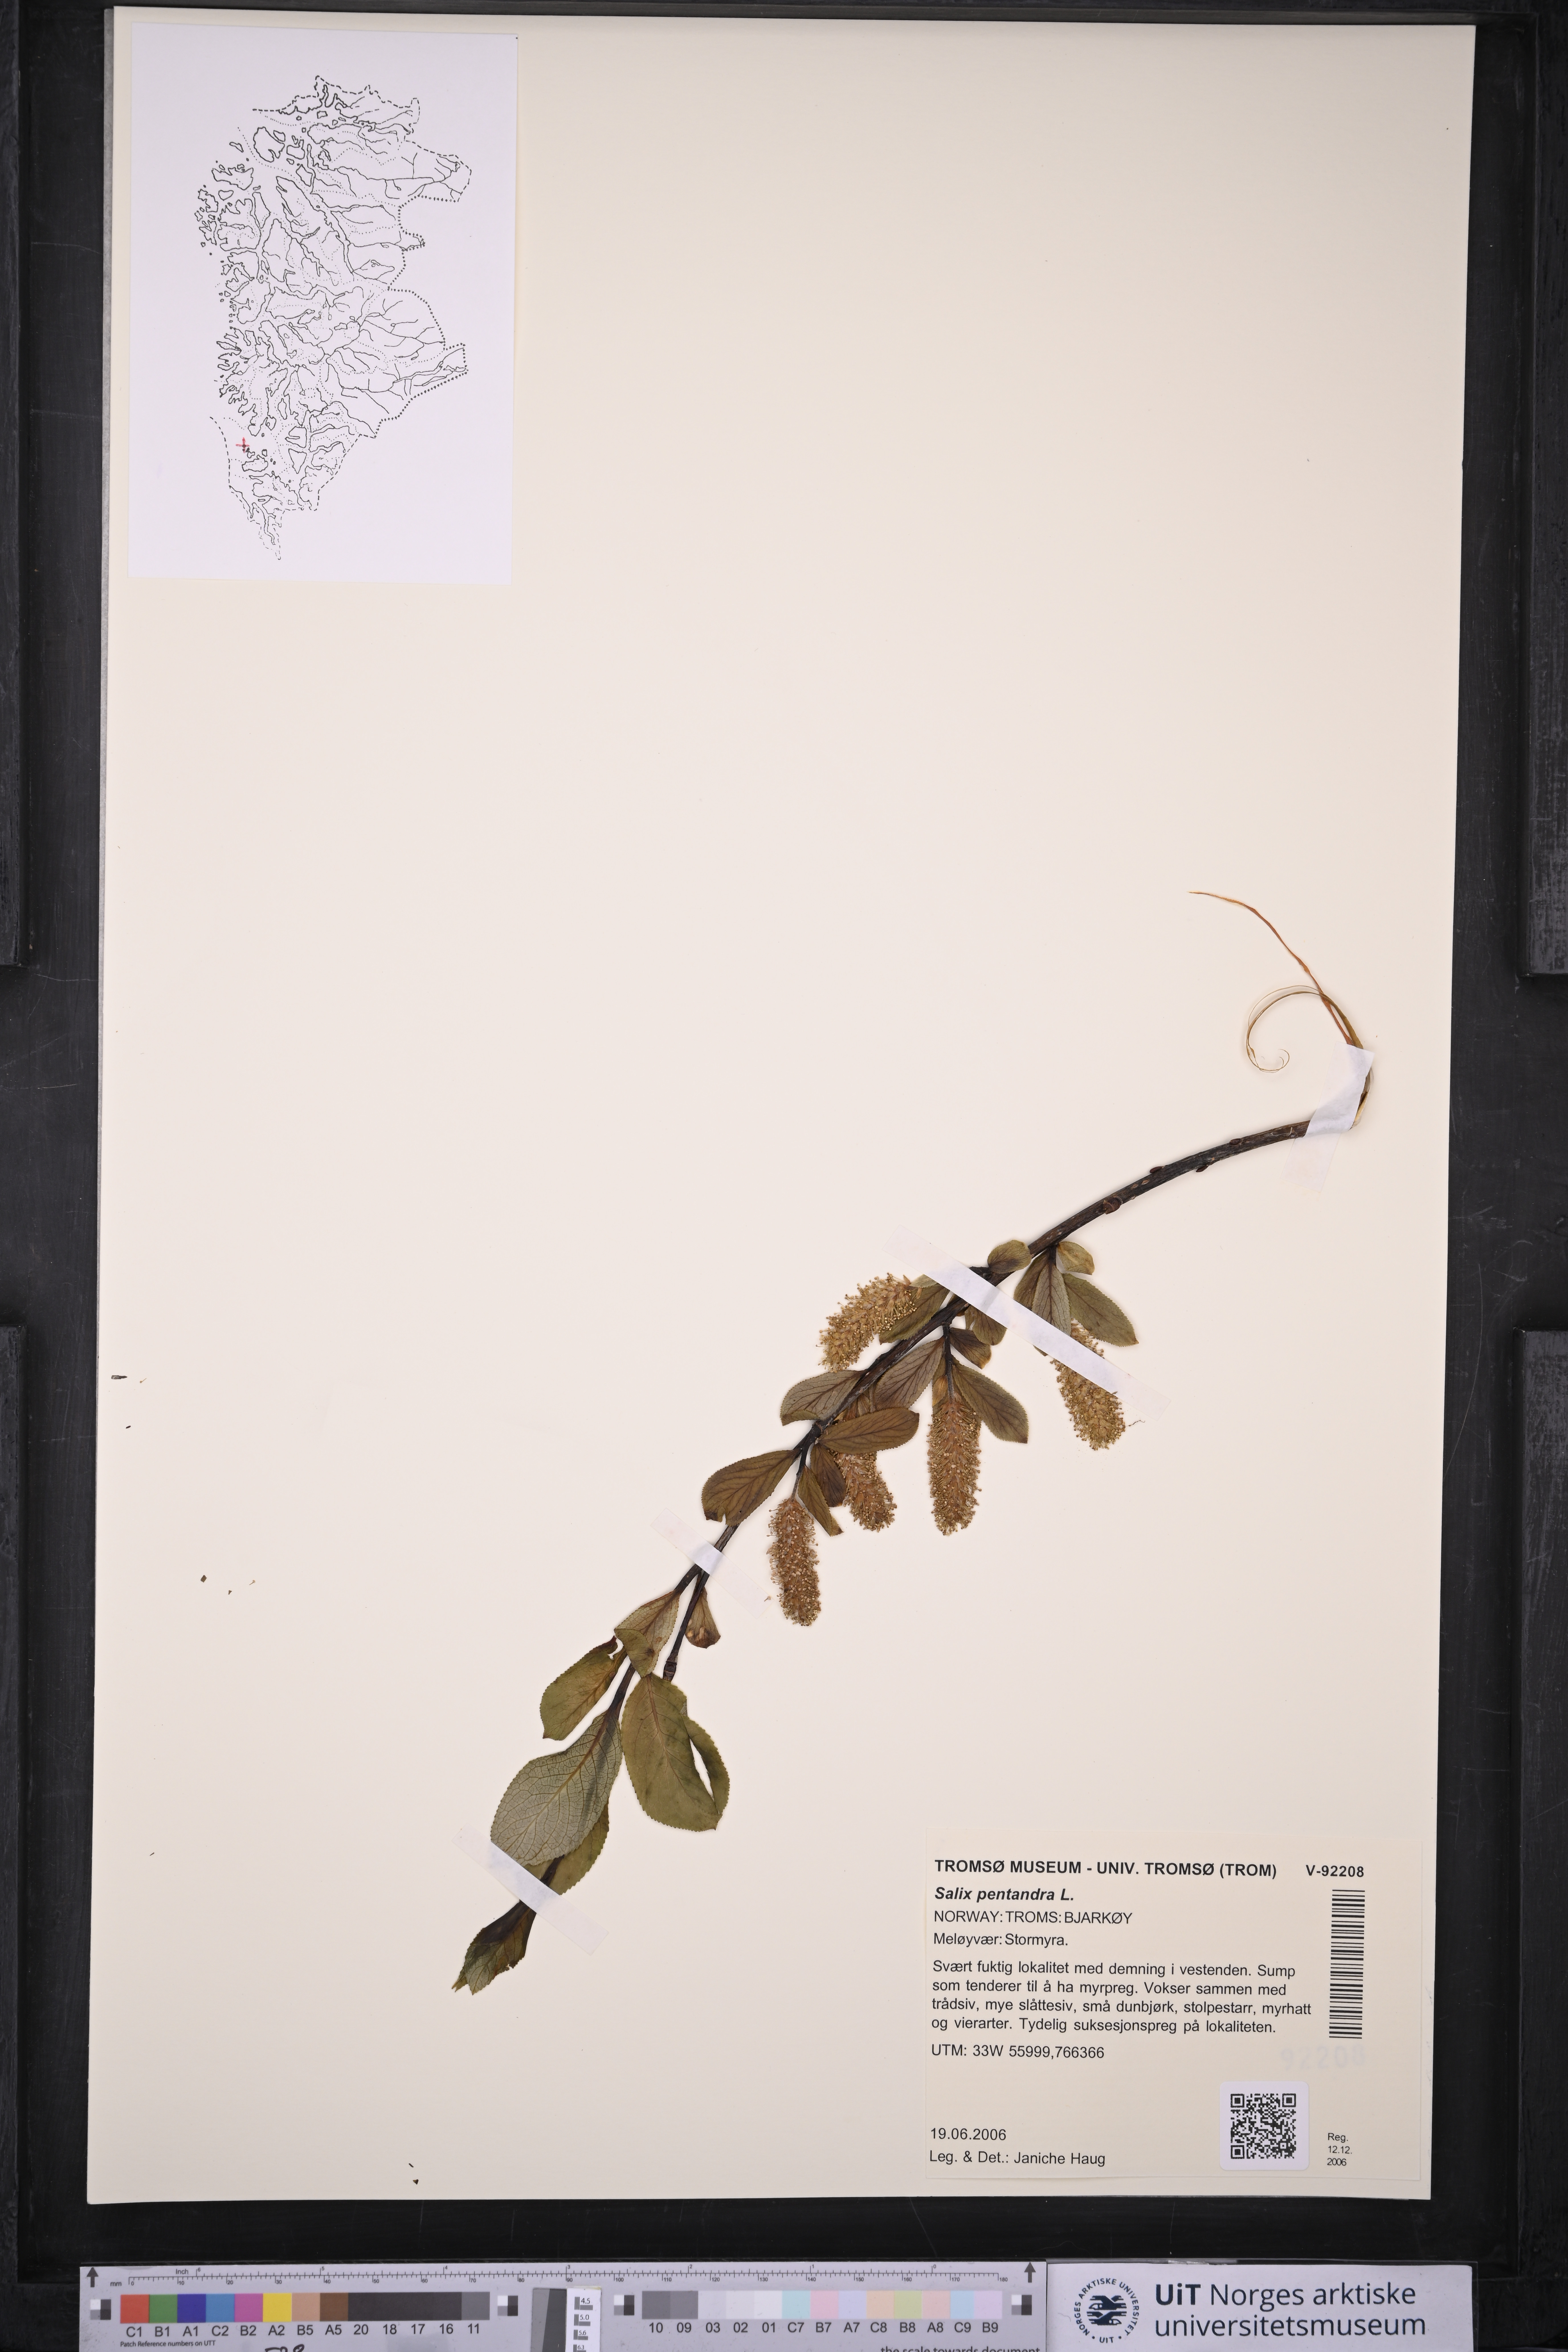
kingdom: Plantae
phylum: Tracheophyta
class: Magnoliopsida
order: Malpighiales
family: Salicaceae
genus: Salix
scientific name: Salix pentandra
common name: Bay willow
